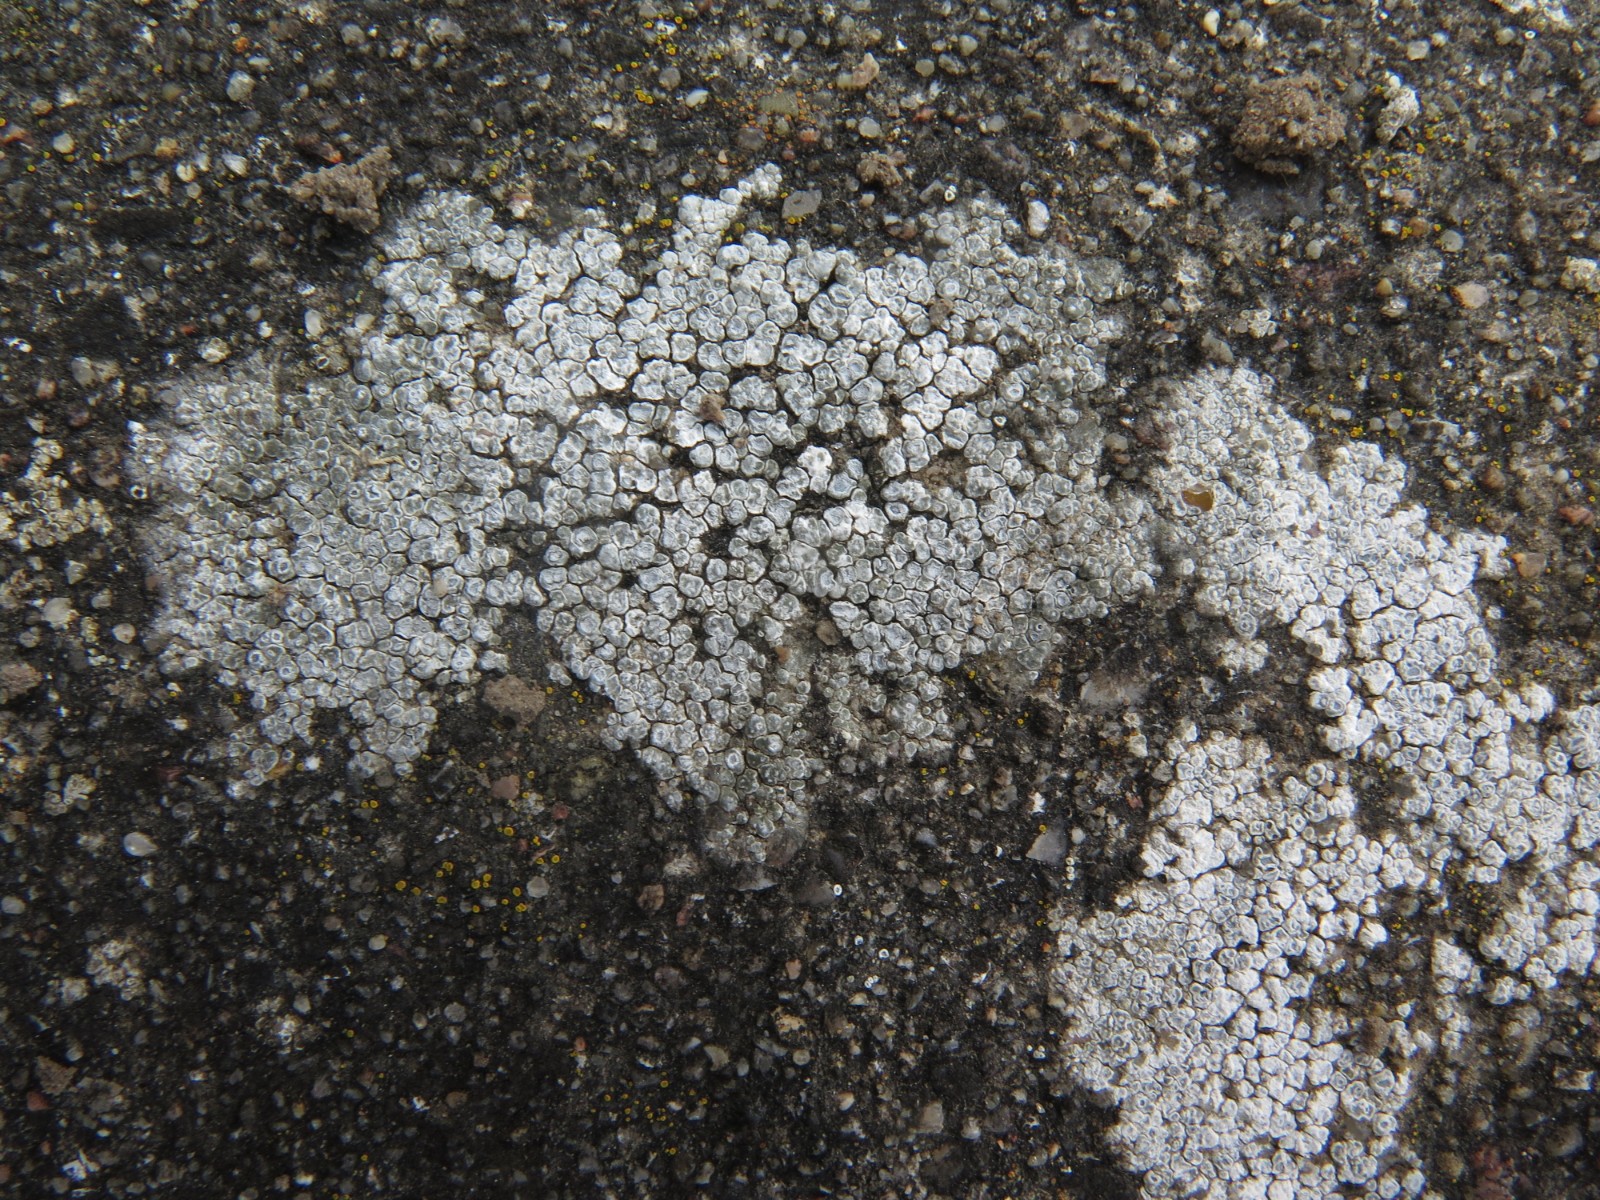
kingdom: Fungi
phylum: Ascomycota
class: Lecanoromycetes
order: Pertusariales
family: Megasporaceae
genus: Circinaria
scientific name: Circinaria contorta
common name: indviklet hulskivelav
